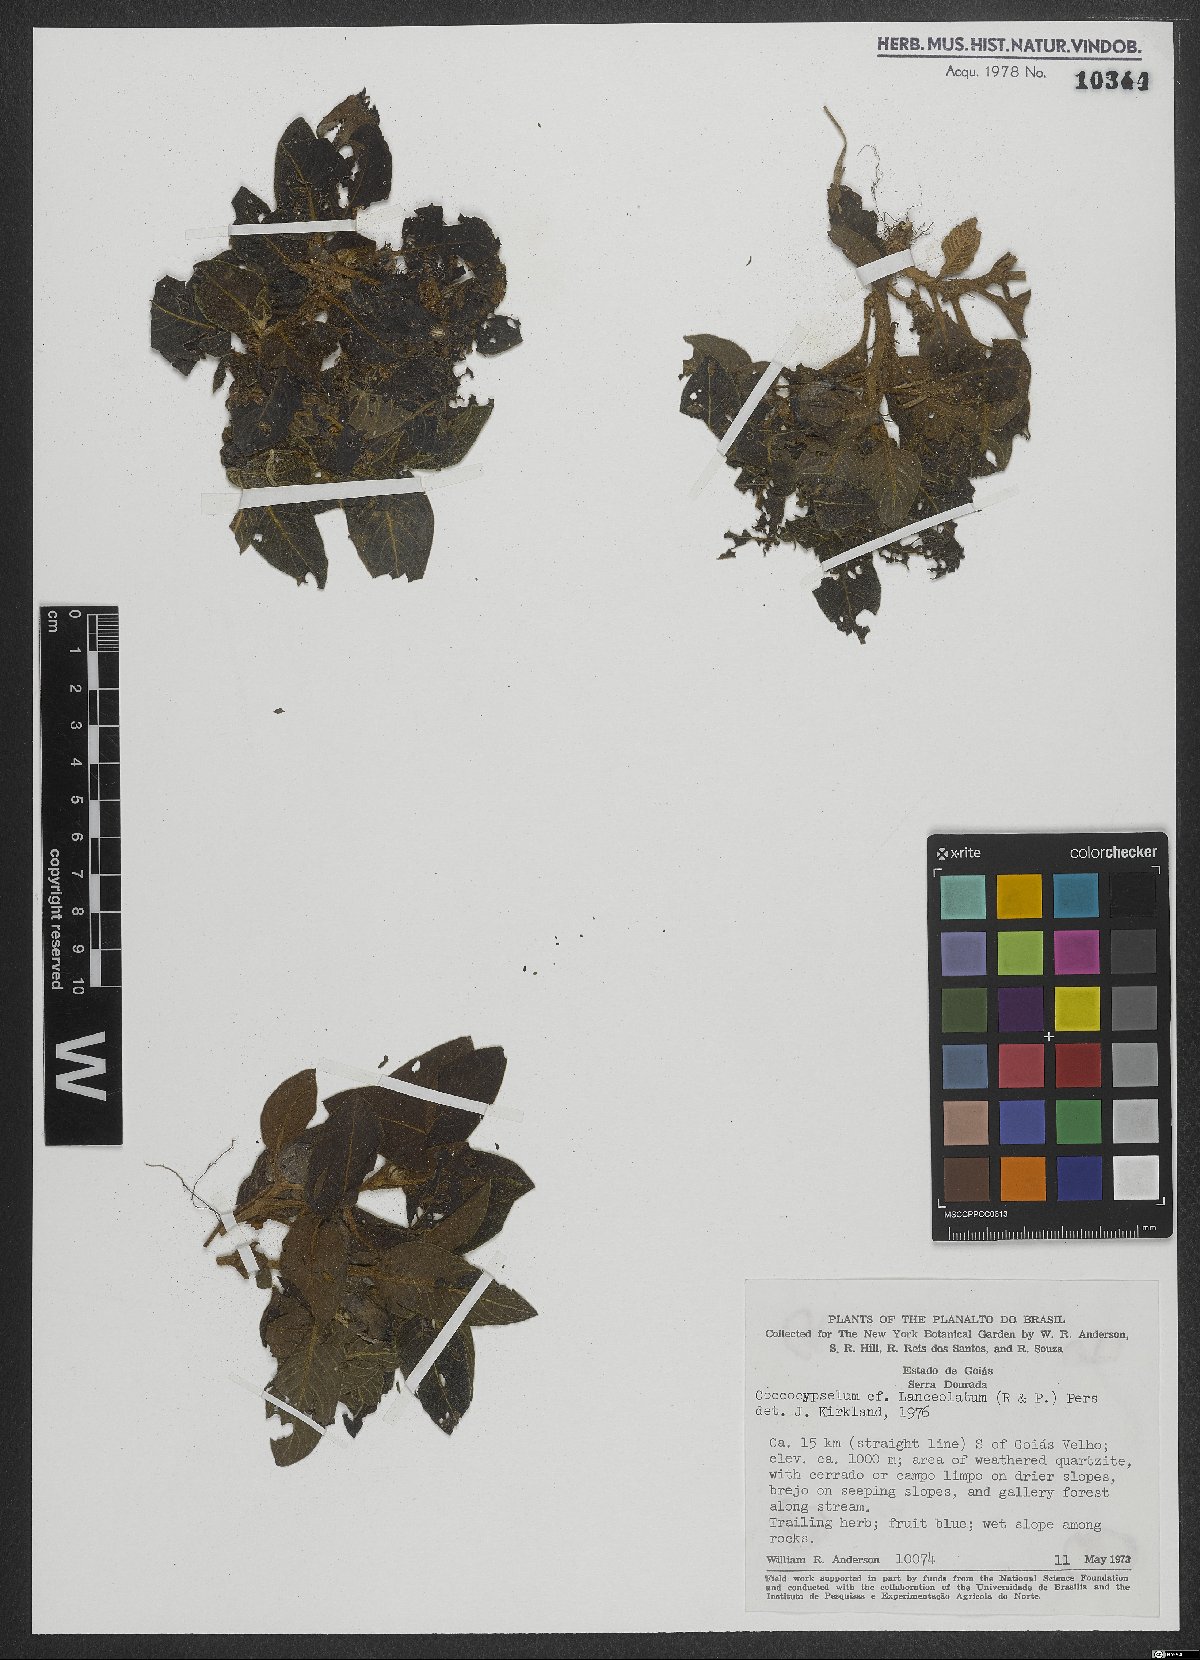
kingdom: Plantae
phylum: Tracheophyta
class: Magnoliopsida
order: Gentianales
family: Rubiaceae
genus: Coccocypselum
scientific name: Coccocypselum lanceolatum
